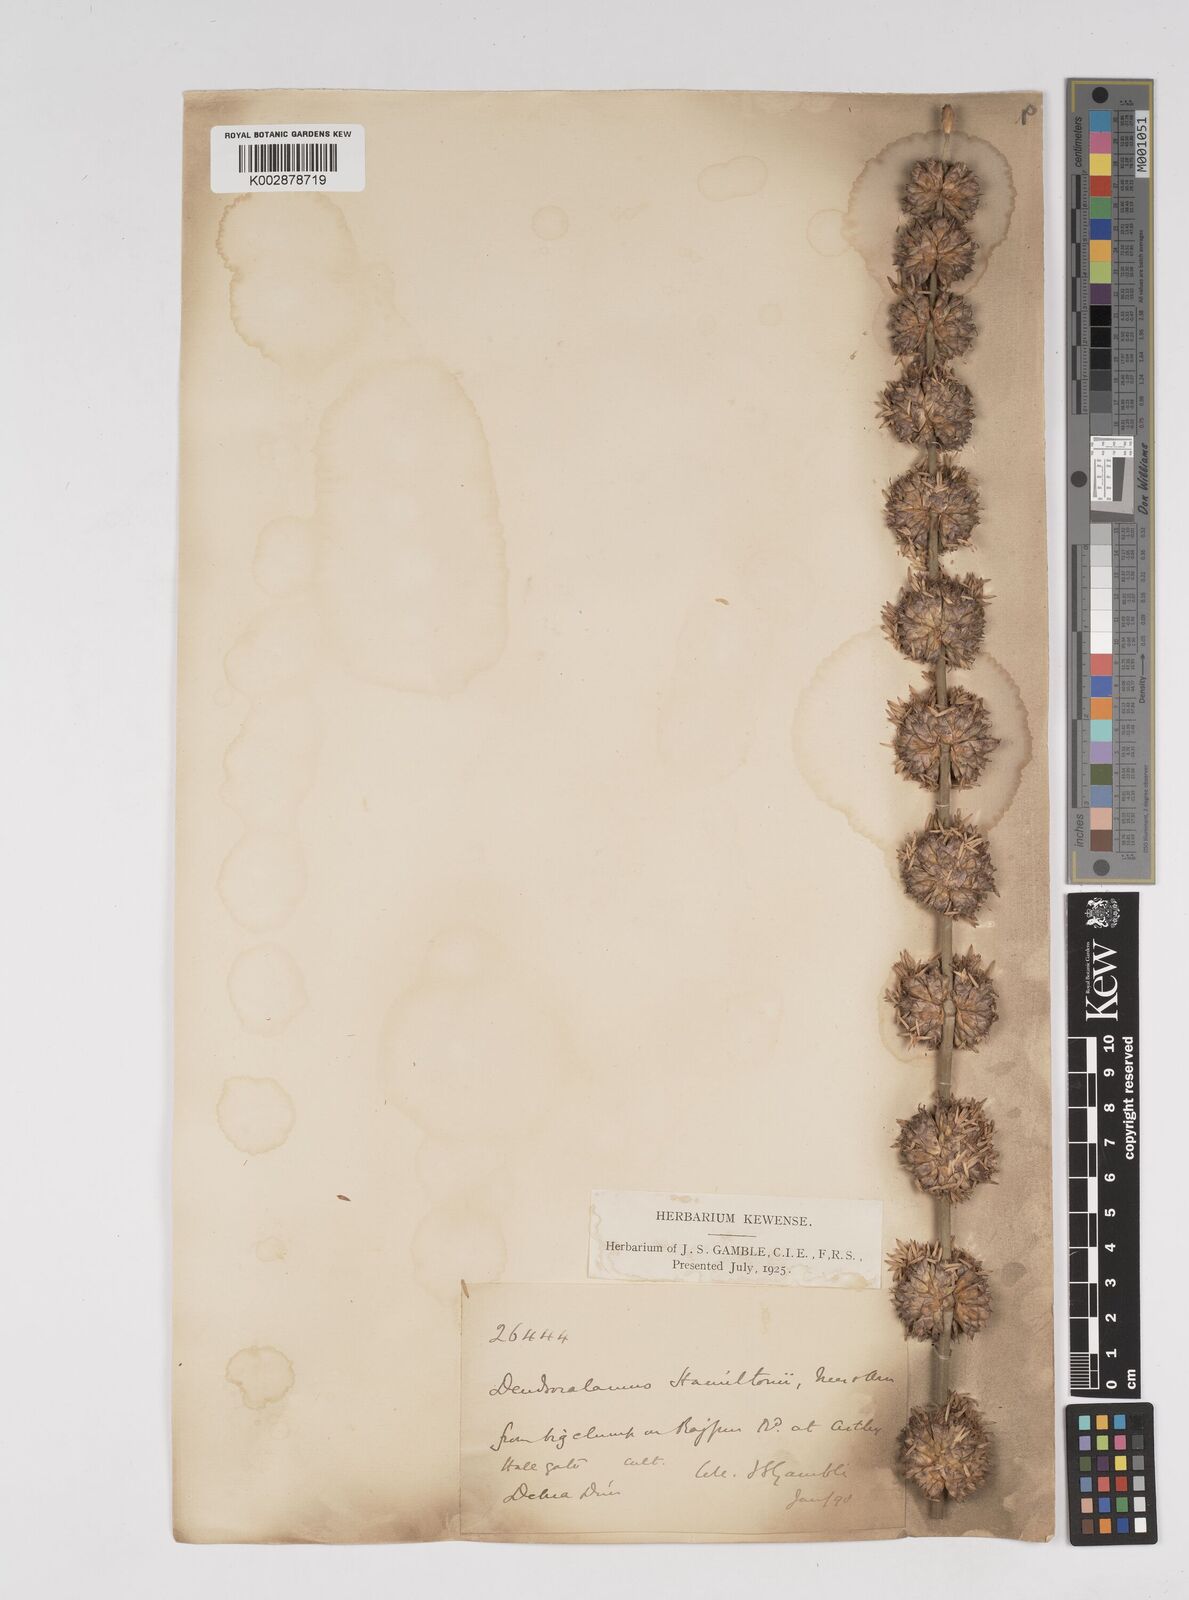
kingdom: Plantae
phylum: Tracheophyta
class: Liliopsida
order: Poales
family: Poaceae
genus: Dendrocalamus
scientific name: Dendrocalamus hamiltonii
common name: Tama bamboo
